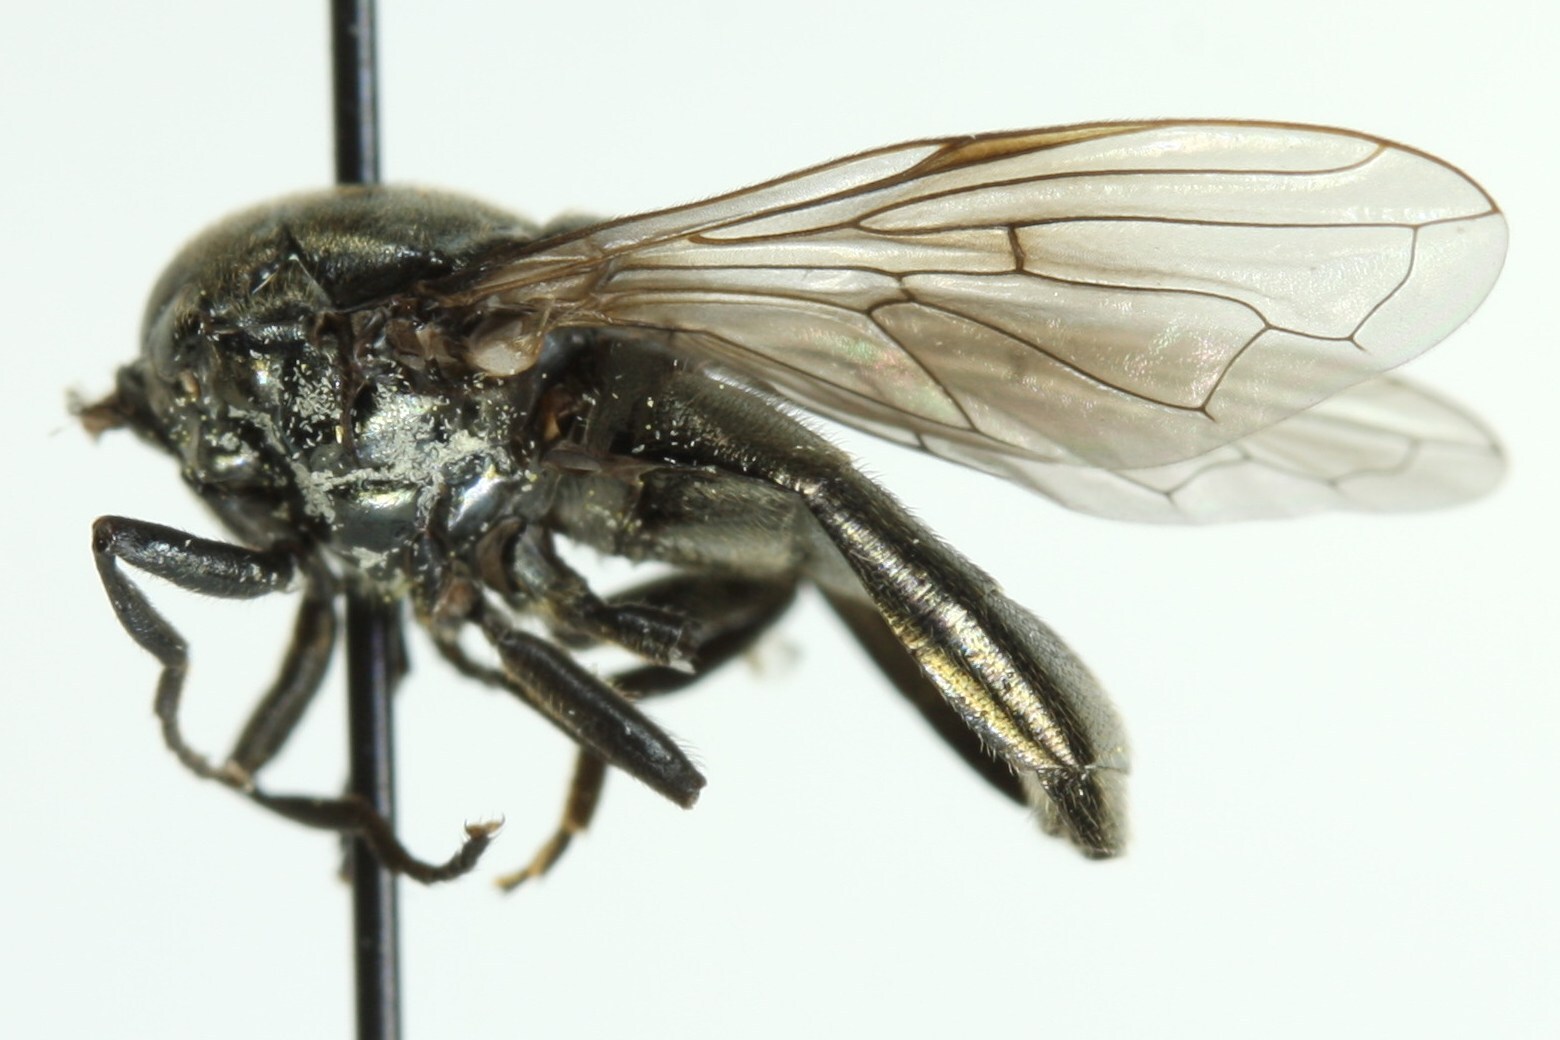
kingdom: Animalia
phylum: Arthropoda
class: Insecta
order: Diptera
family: Syrphidae
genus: Chrysogaster
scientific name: Chrysogaster aerosa
